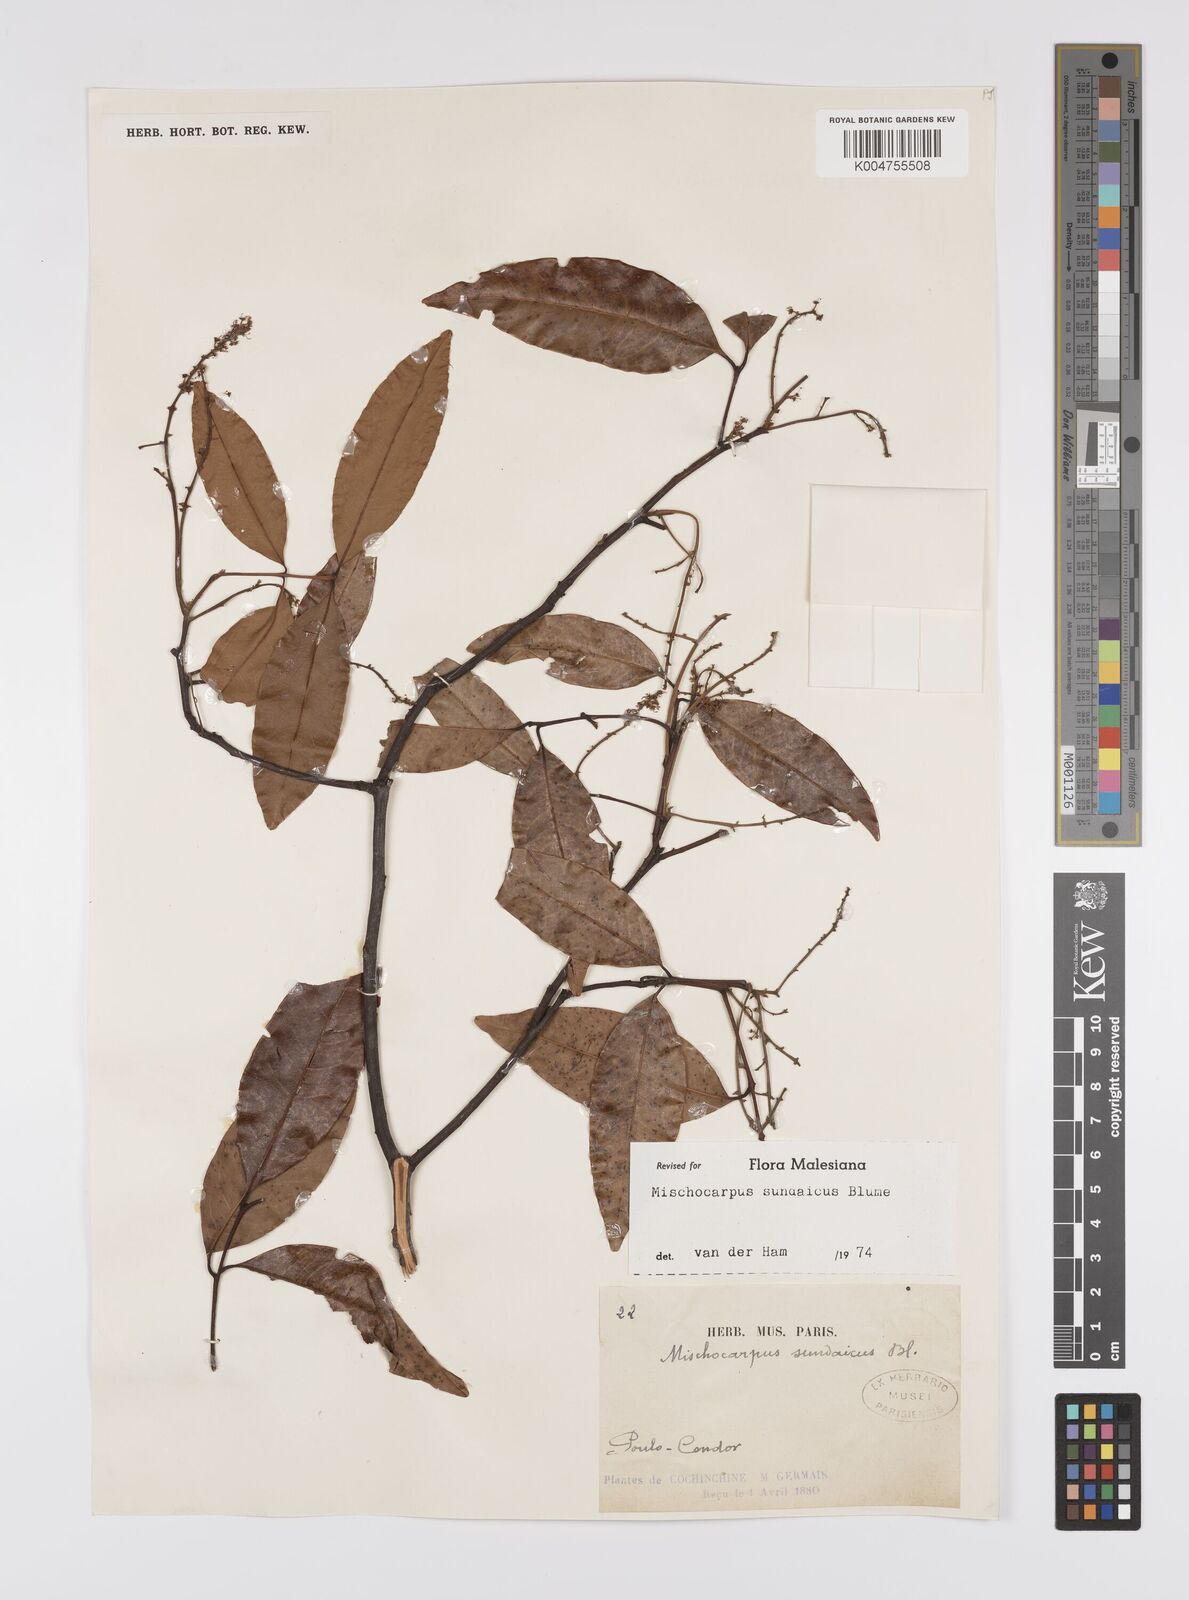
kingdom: Plantae
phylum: Tracheophyta
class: Magnoliopsida
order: Sapindales
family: Sapindaceae
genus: Mischocarpus
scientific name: Mischocarpus sundaicus
